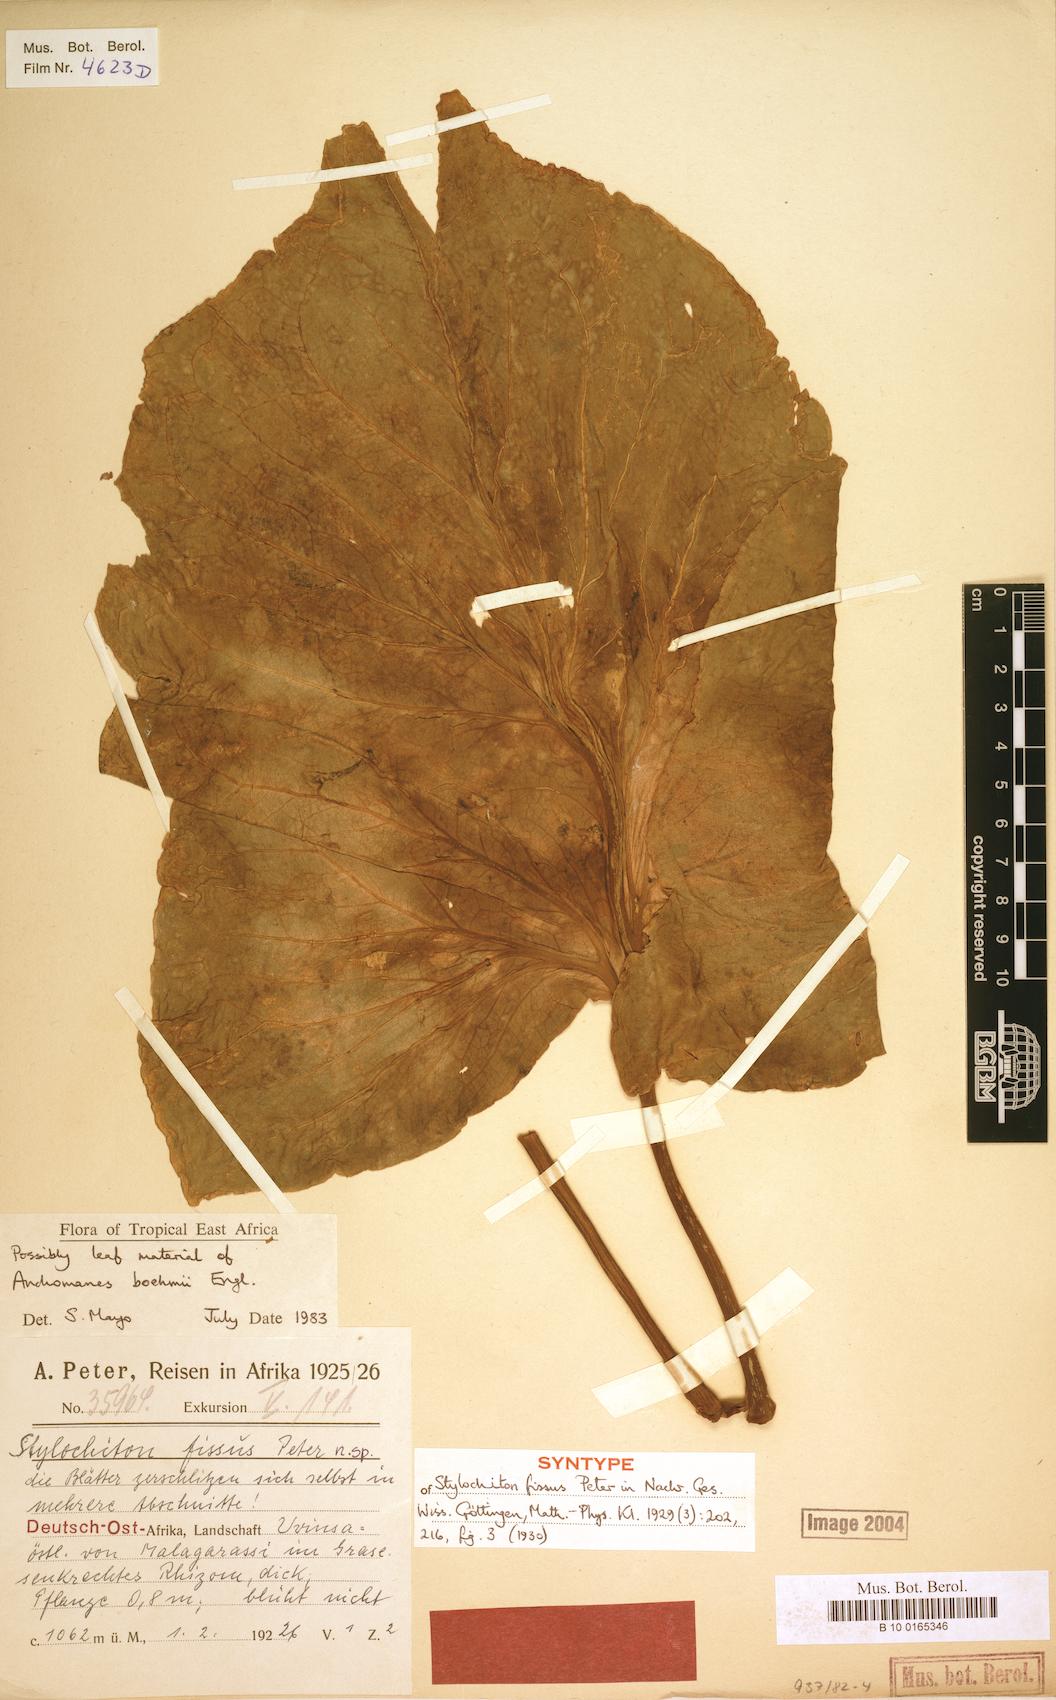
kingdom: Plantae
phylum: Tracheophyta
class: Liliopsida
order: Alismatales
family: Araceae
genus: Anchomanes
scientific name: Anchomanes boehmii
